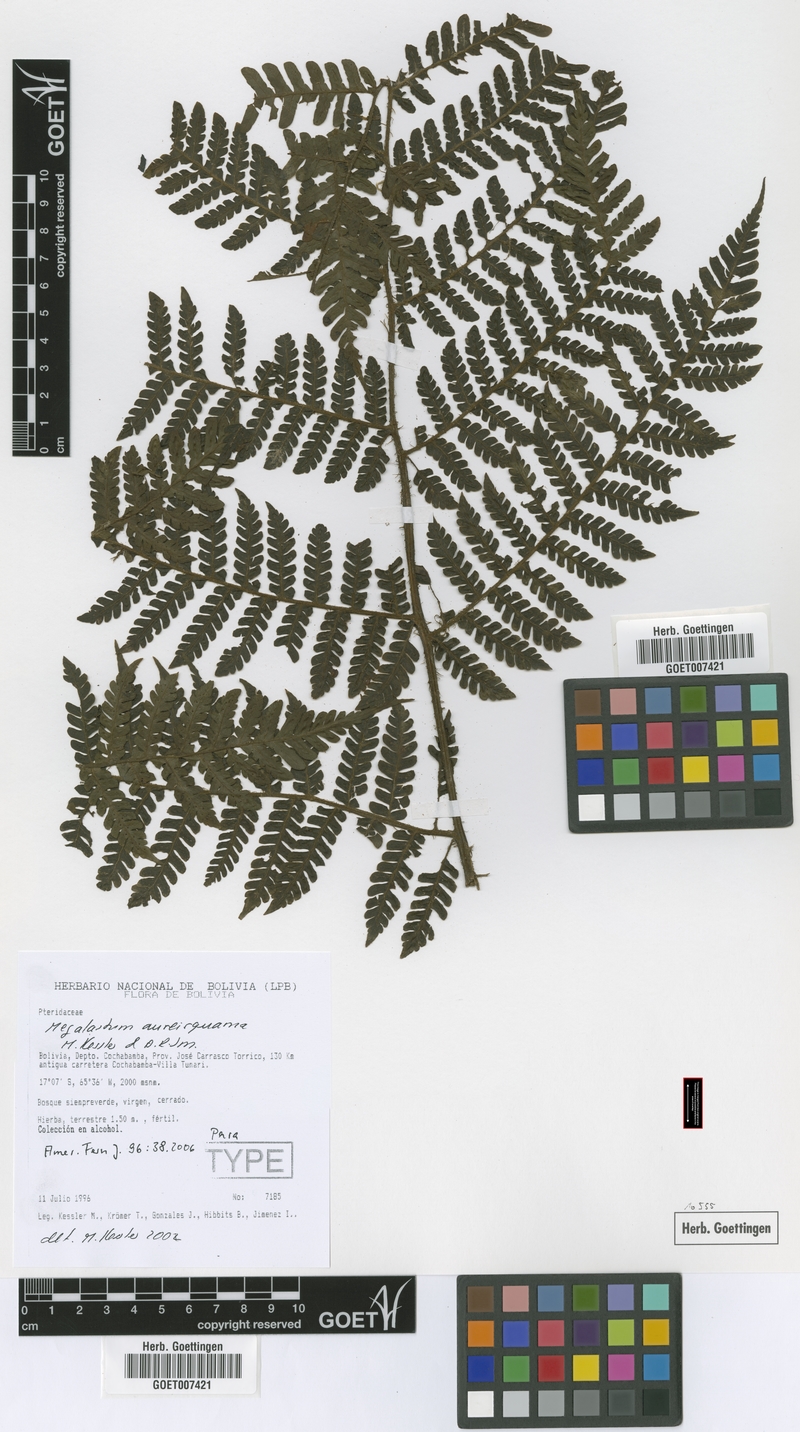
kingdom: Plantae
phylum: Tracheophyta
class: Polypodiopsida
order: Polypodiales
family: Dryopteridaceae
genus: Megalastrum
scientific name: Megalastrum aureisquama
